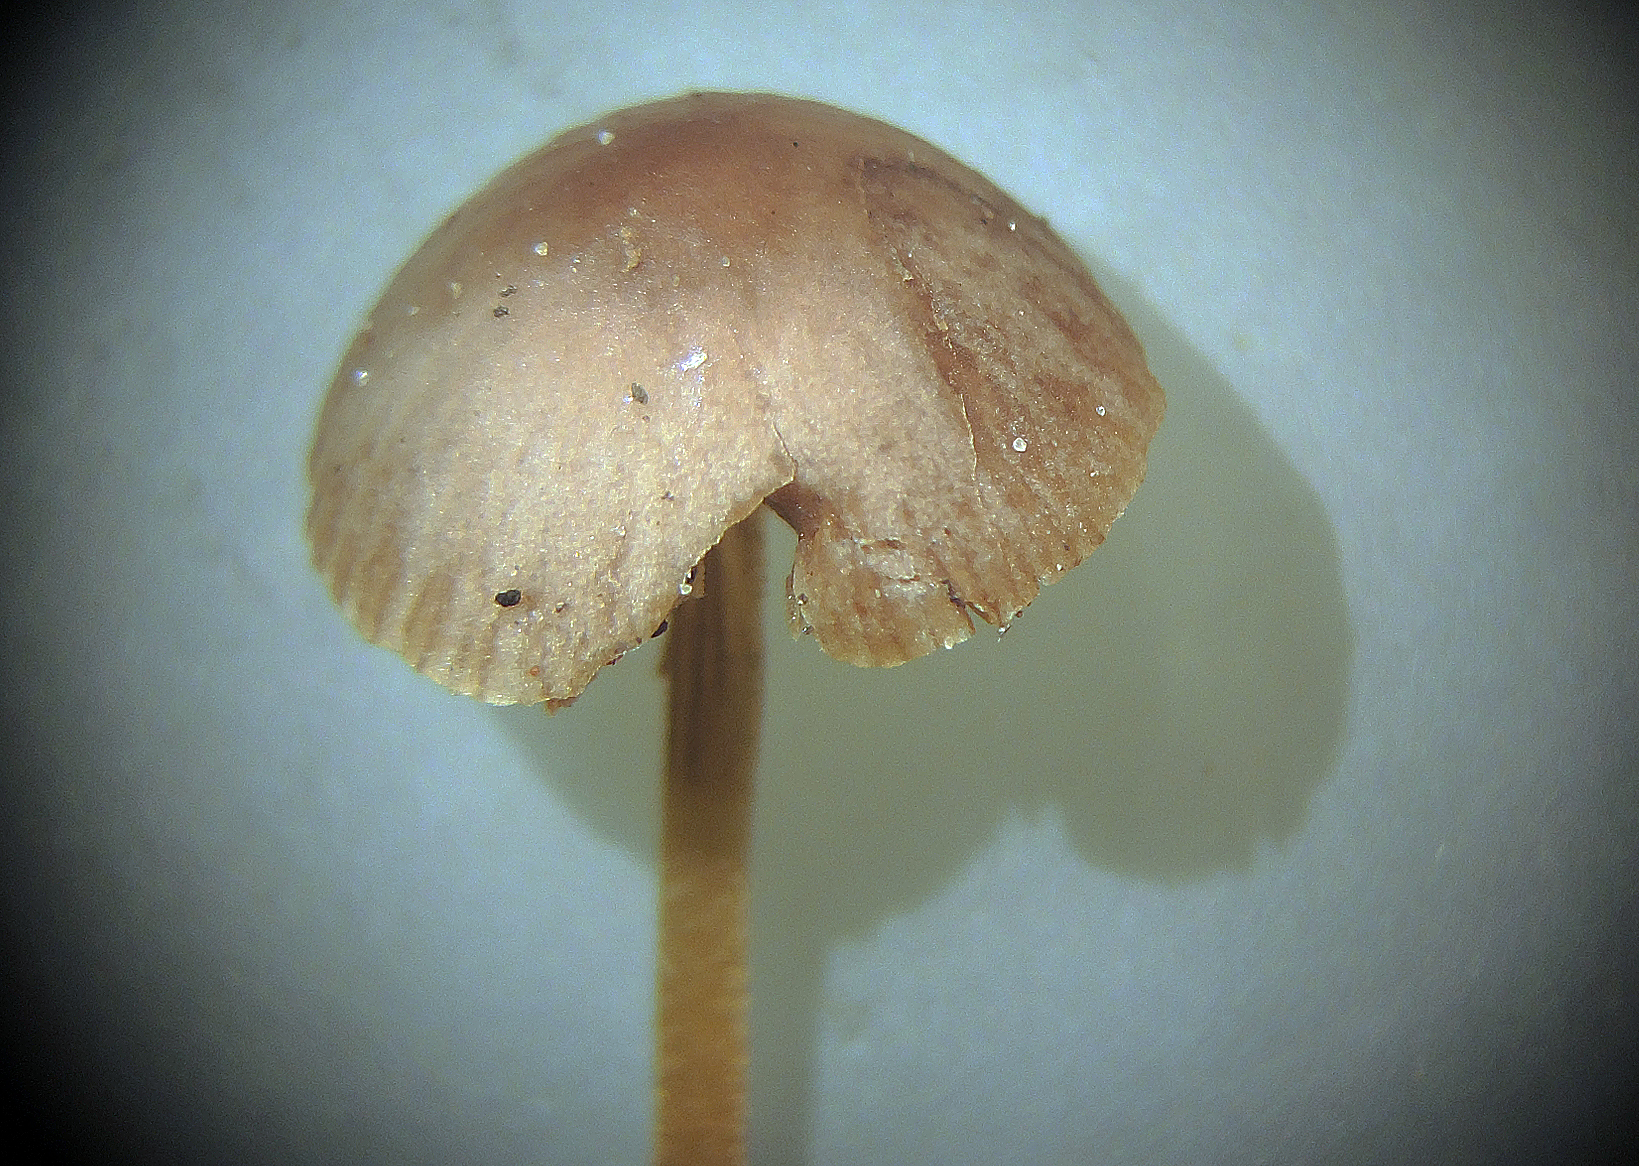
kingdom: Fungi
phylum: Basidiomycota
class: Agaricomycetes
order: Agaricales
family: Bolbitiaceae
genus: Conocybe
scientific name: Conocybe juniana
